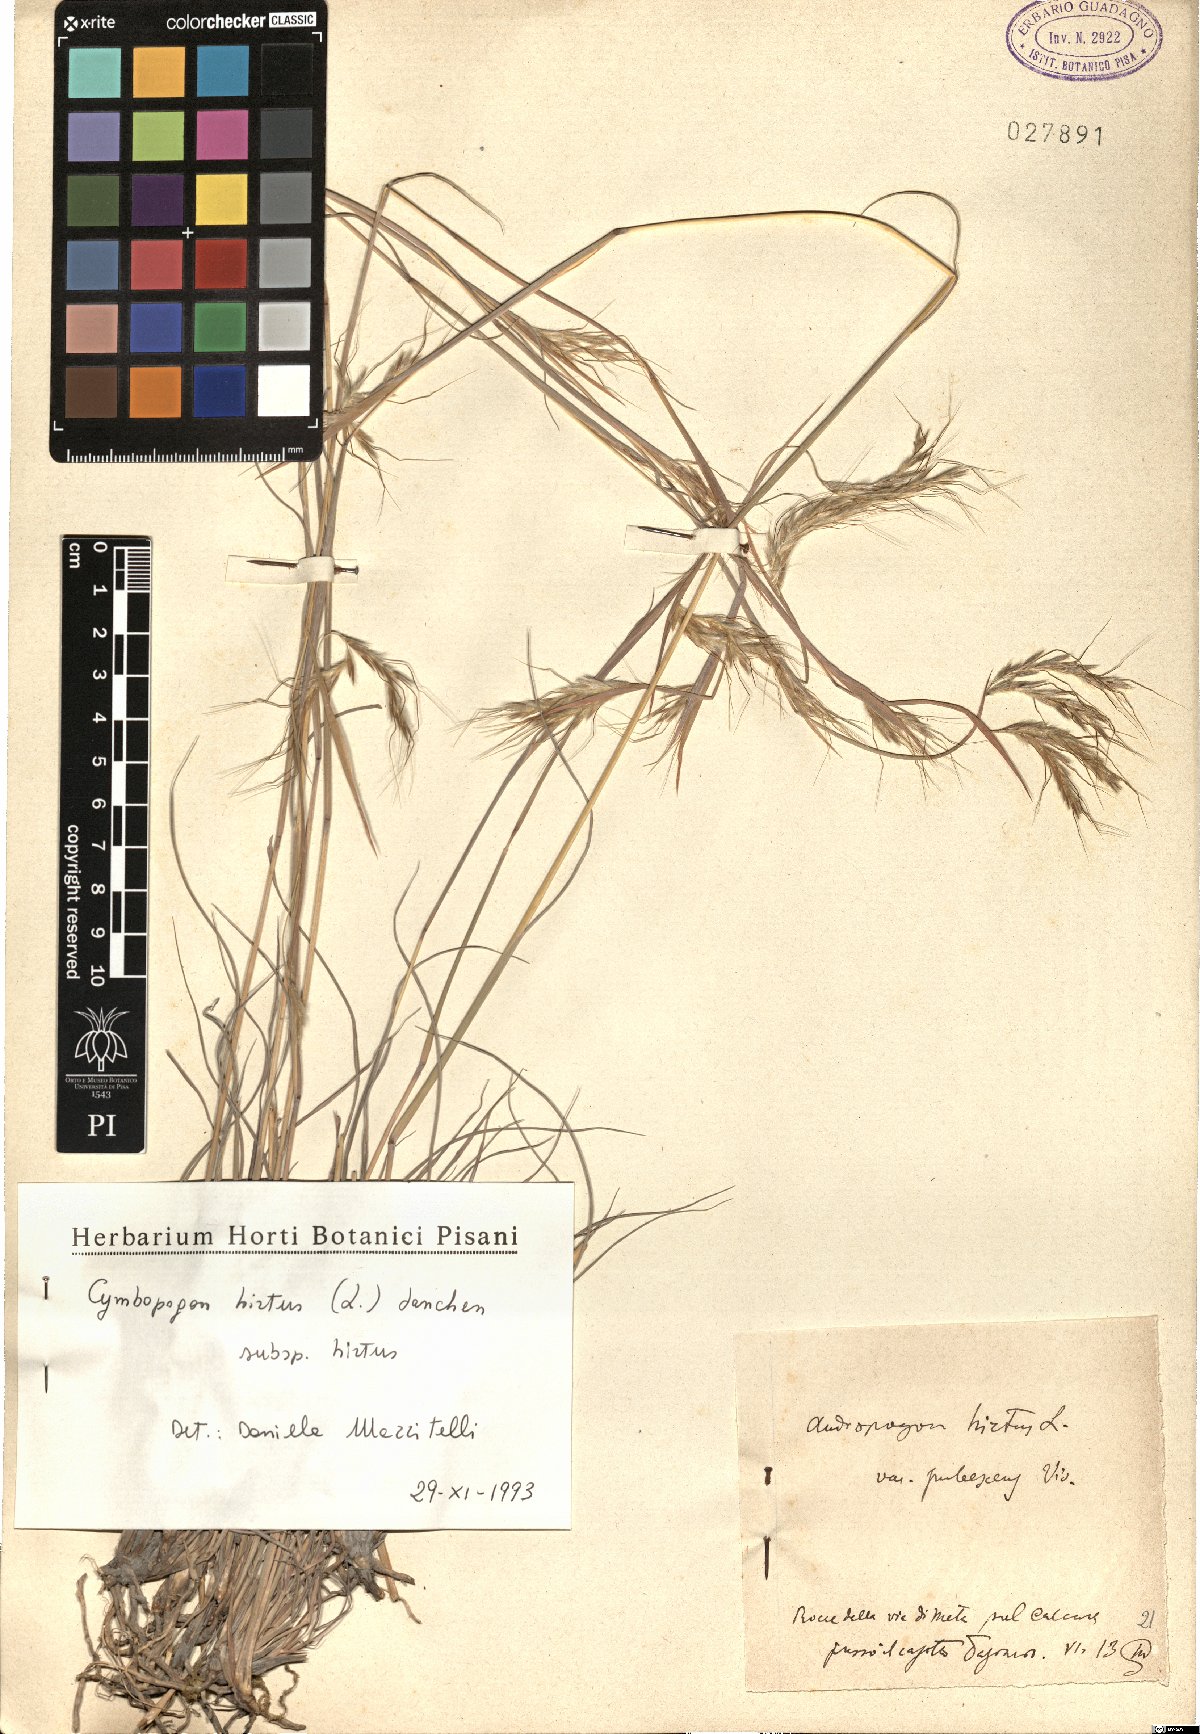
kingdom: Plantae
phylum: Tracheophyta
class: Liliopsida
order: Poales
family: Poaceae
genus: Cymbopogon
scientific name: Cymbopogon hirtus
